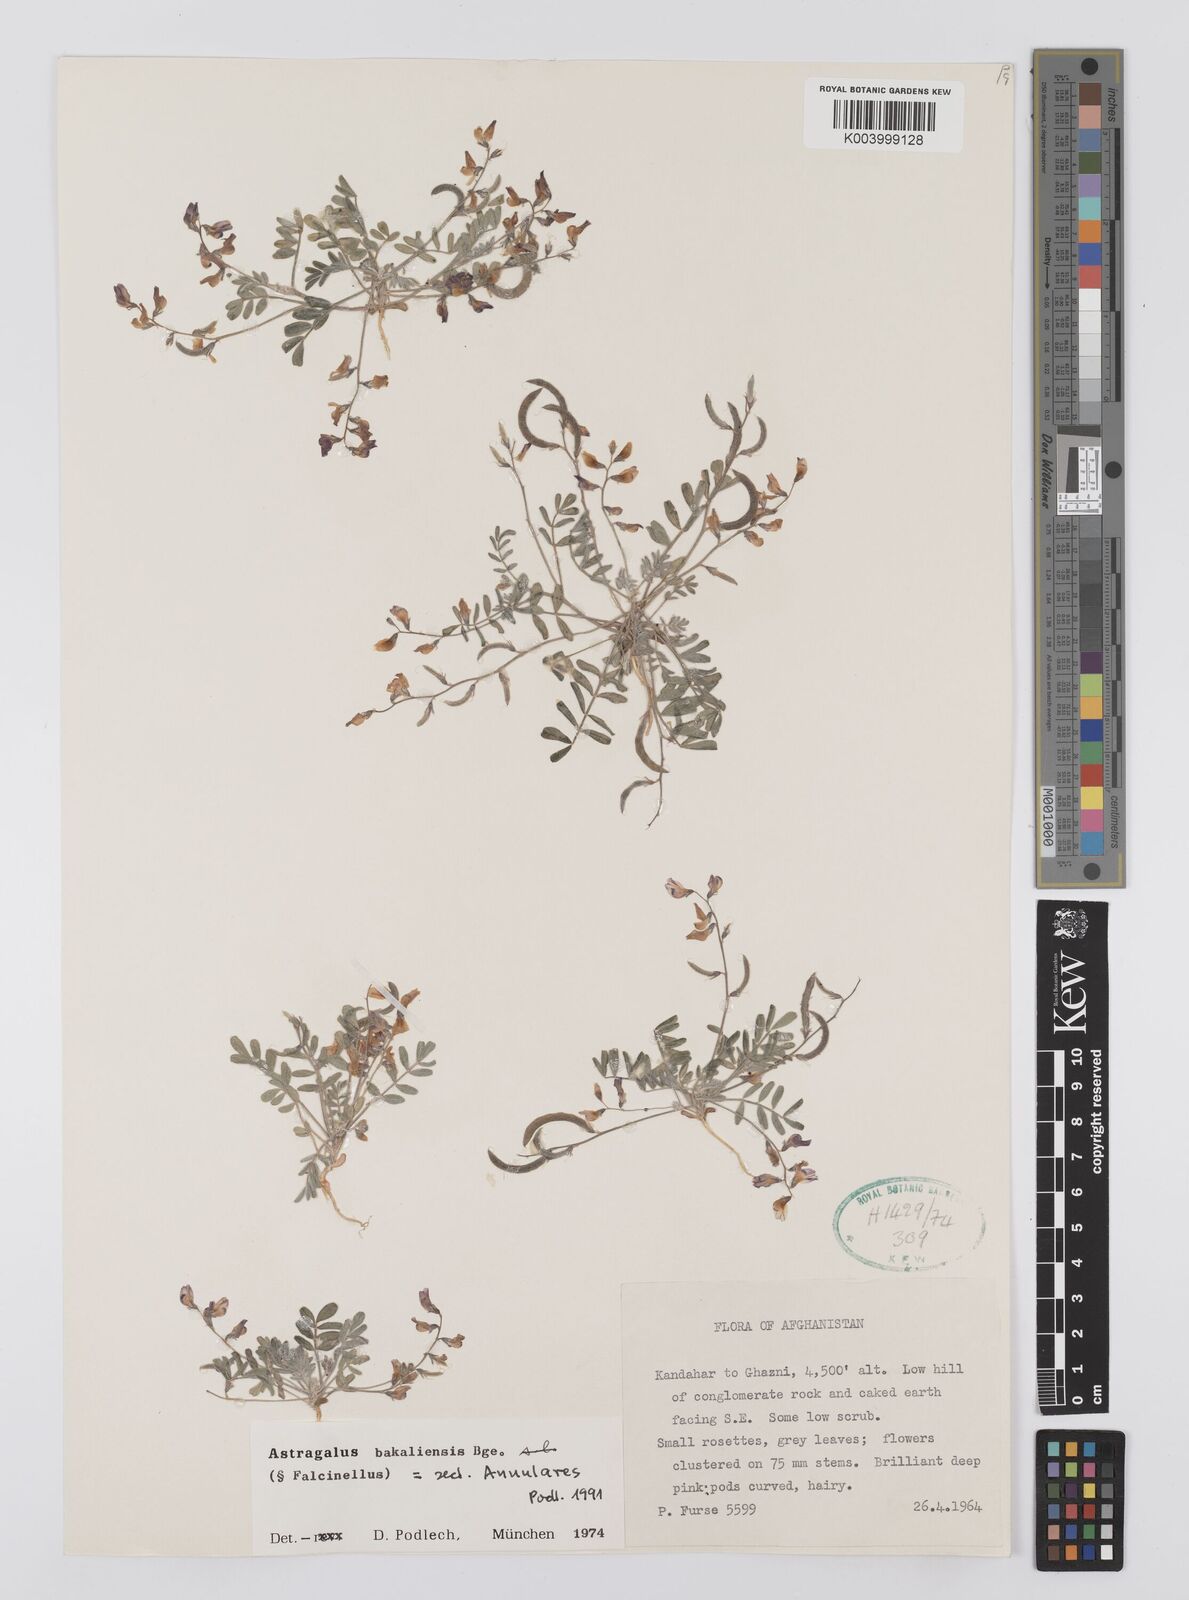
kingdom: Plantae
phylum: Tracheophyta
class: Magnoliopsida
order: Fabales
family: Fabaceae
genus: Astragalus
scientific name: Astragalus bakaliensis
